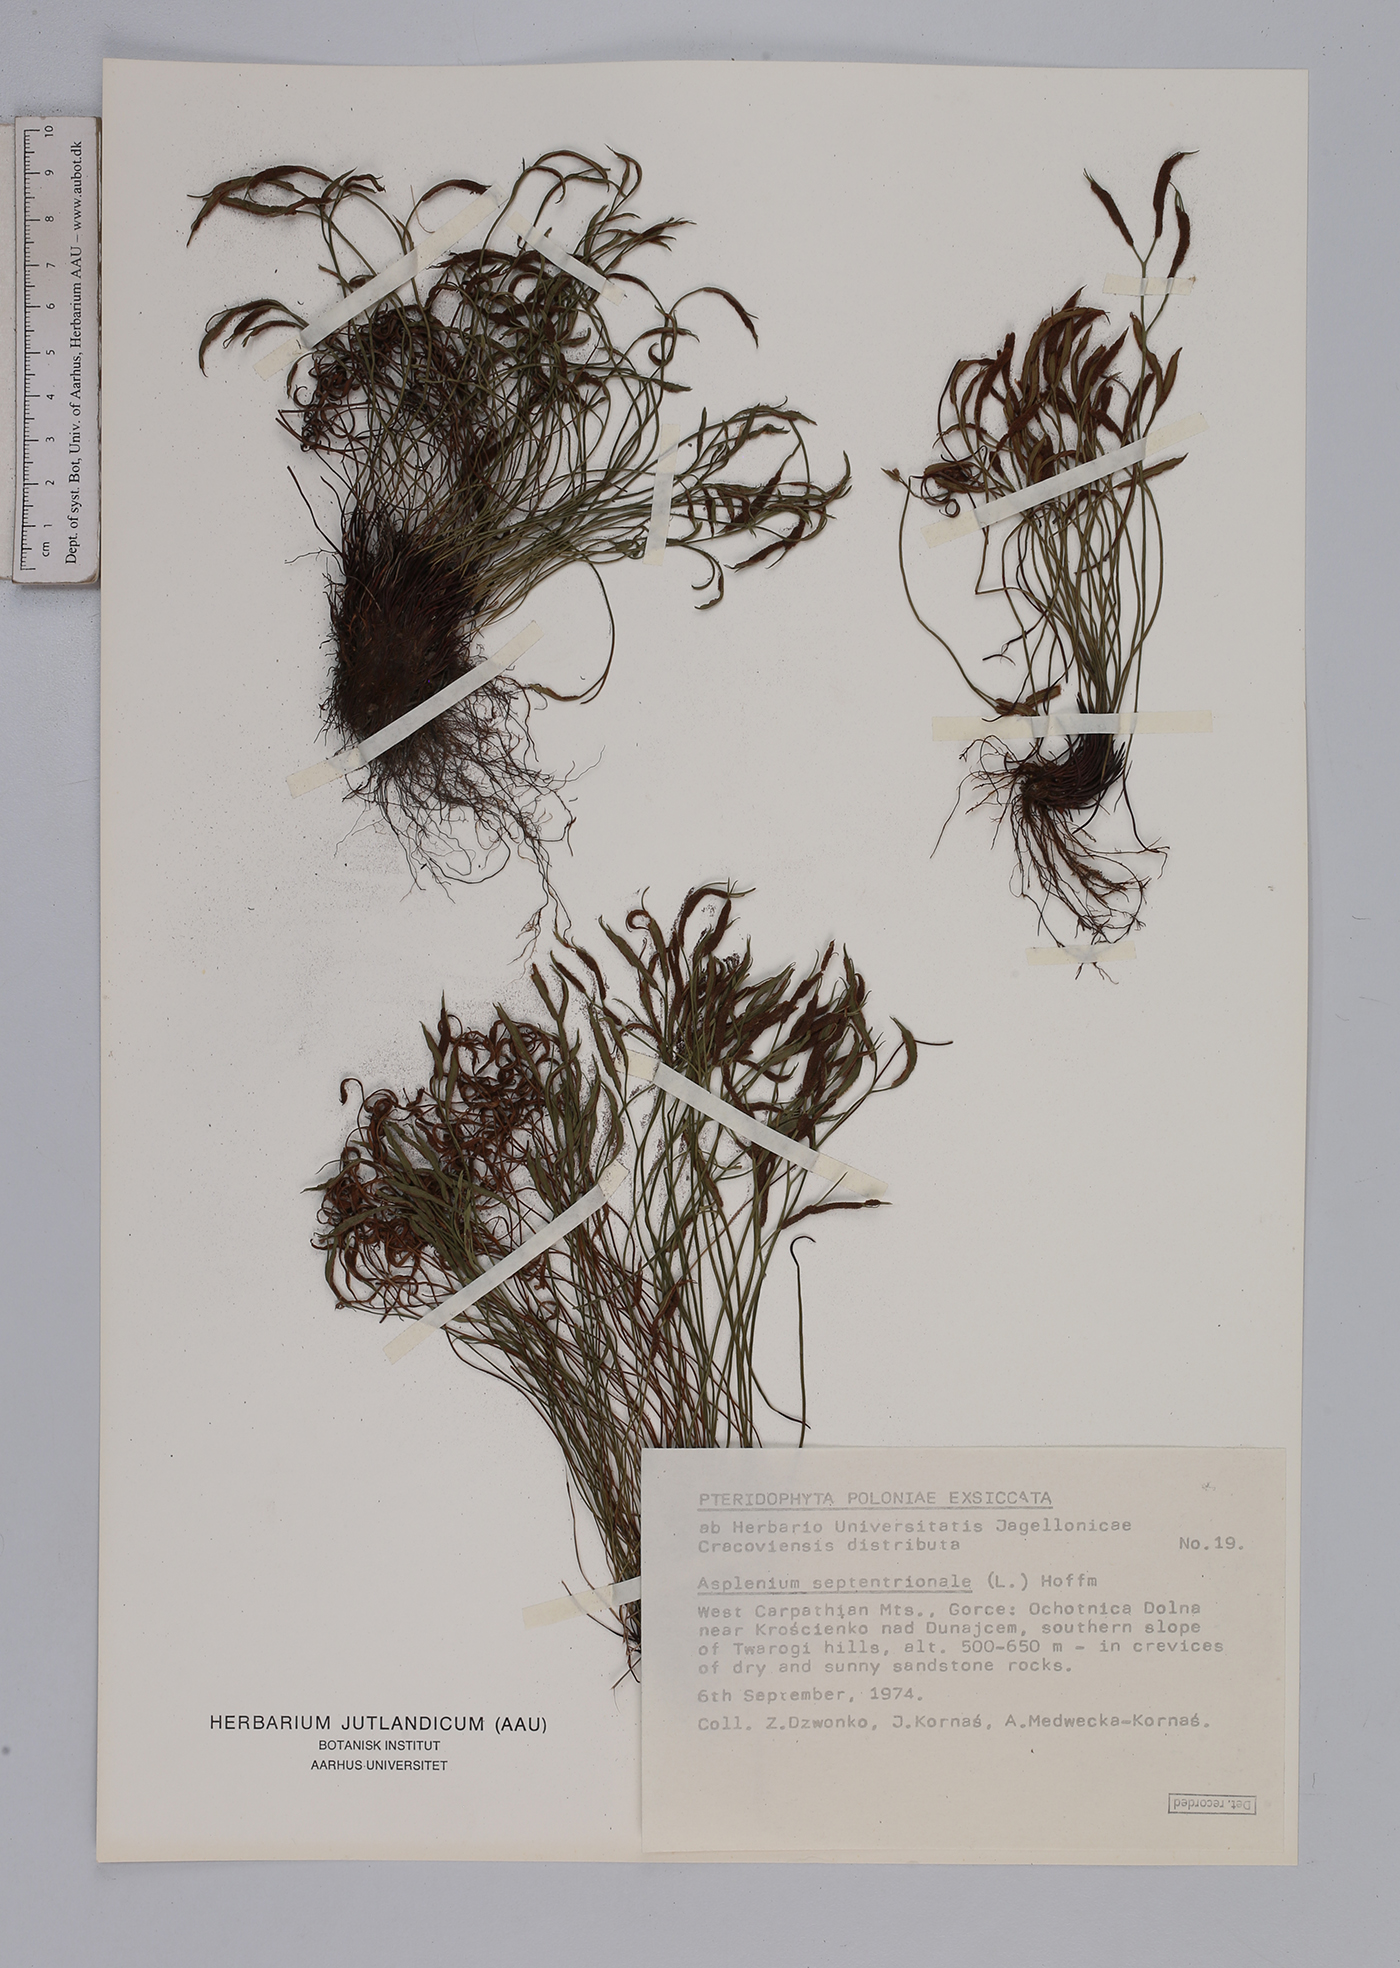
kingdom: Plantae
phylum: Tracheophyta
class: Polypodiopsida
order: Polypodiales
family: Aspleniaceae
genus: Asplenium
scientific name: Asplenium septentrionale
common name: Forked spleenwort
